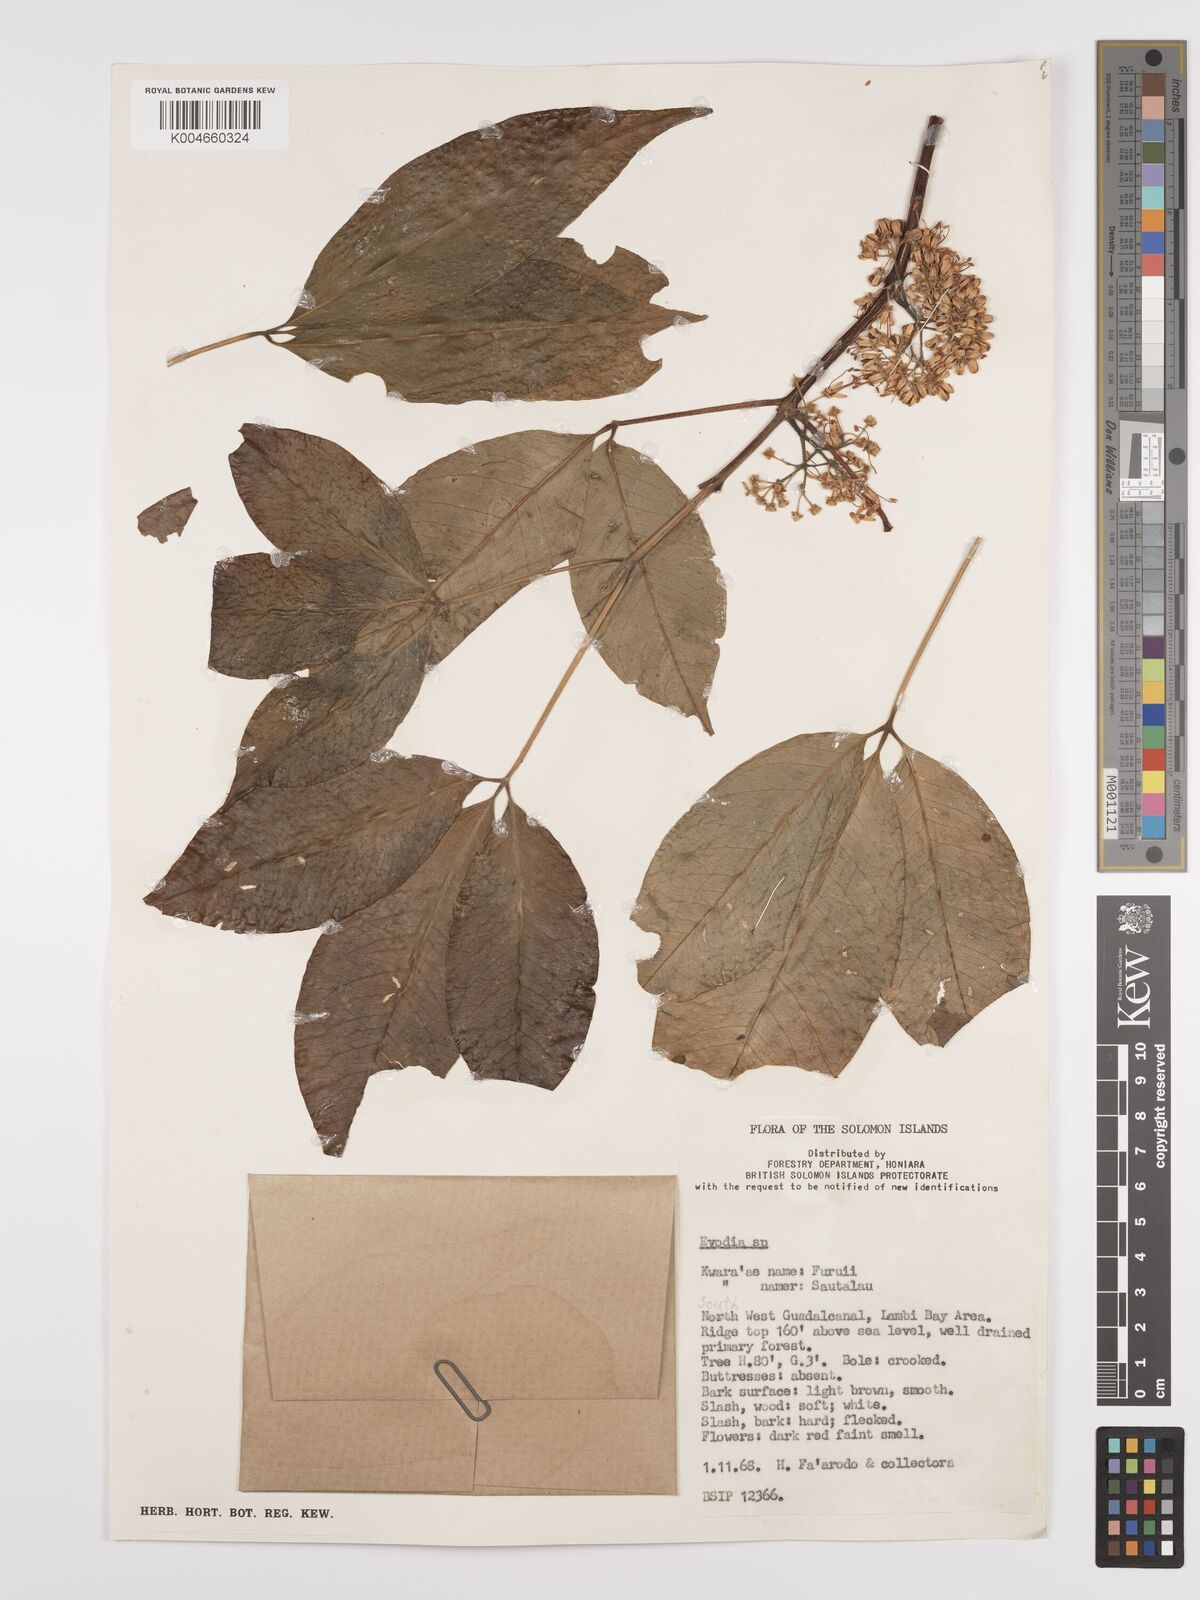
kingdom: Plantae
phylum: Tracheophyta
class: Magnoliopsida
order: Sapindales
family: Rutaceae
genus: Euodia
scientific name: Euodia
